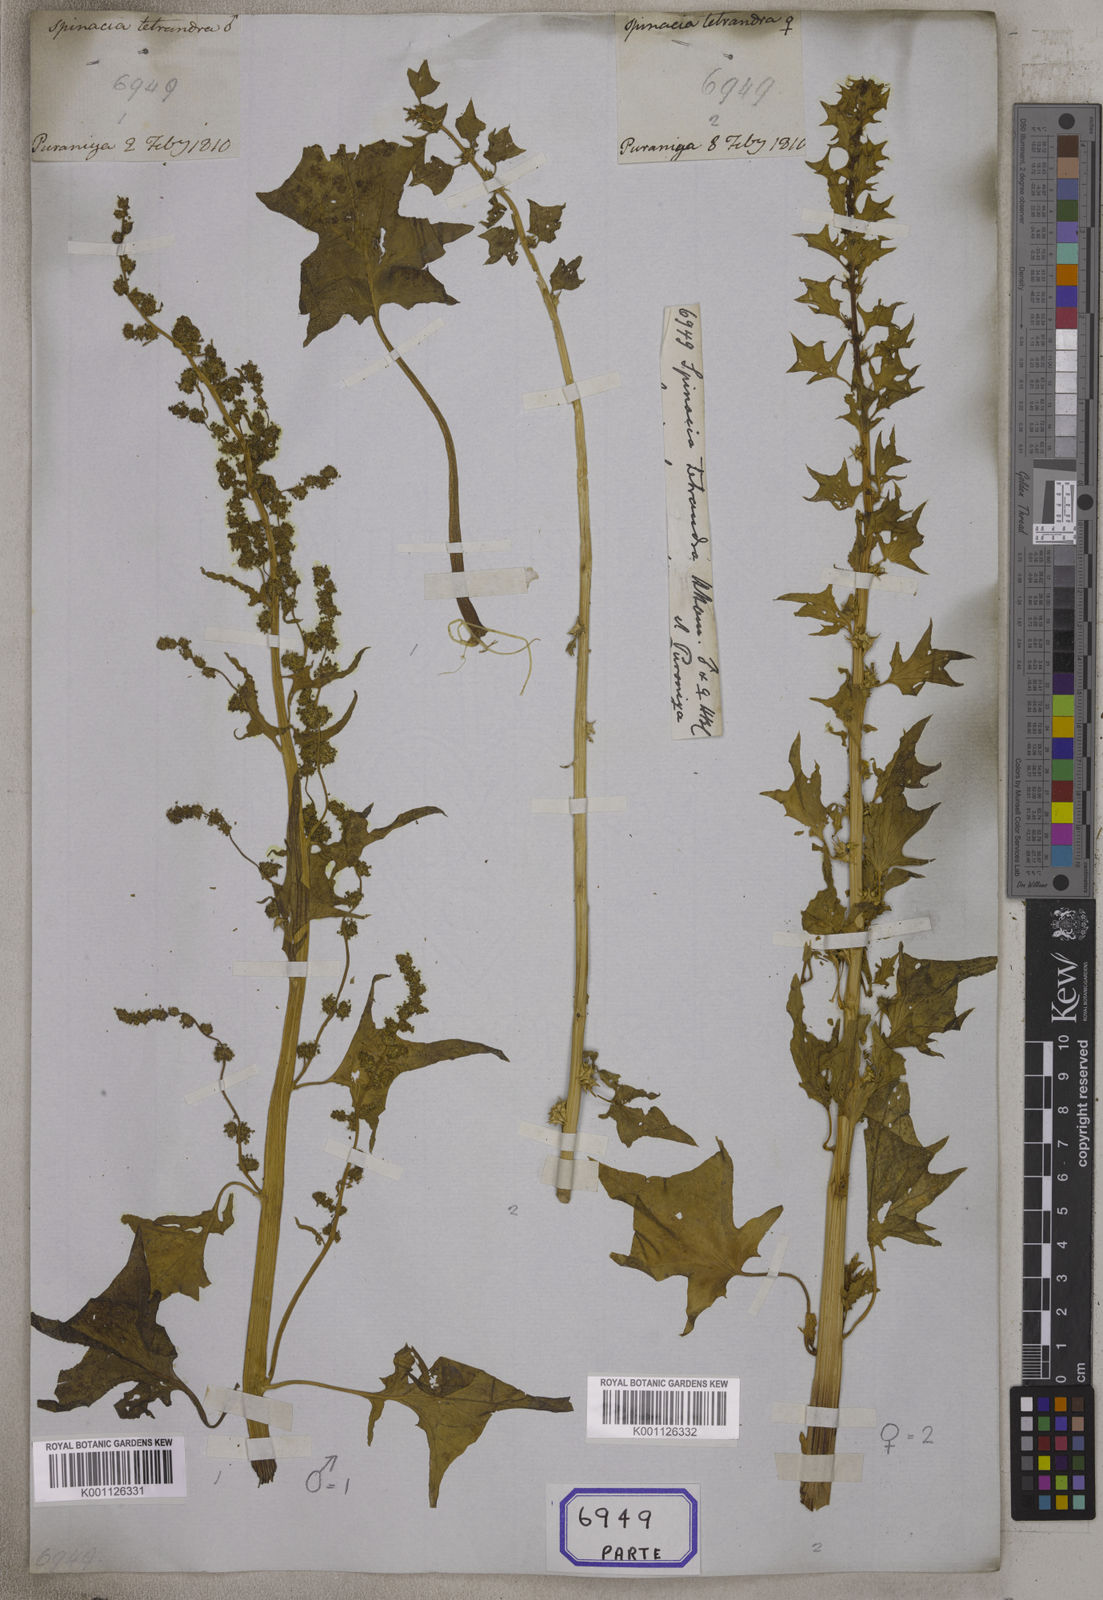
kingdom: Plantae
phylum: Tracheophyta
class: Magnoliopsida
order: Caryophyllales
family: Amaranthaceae
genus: Spinacia
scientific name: Spinacia tetrandra
